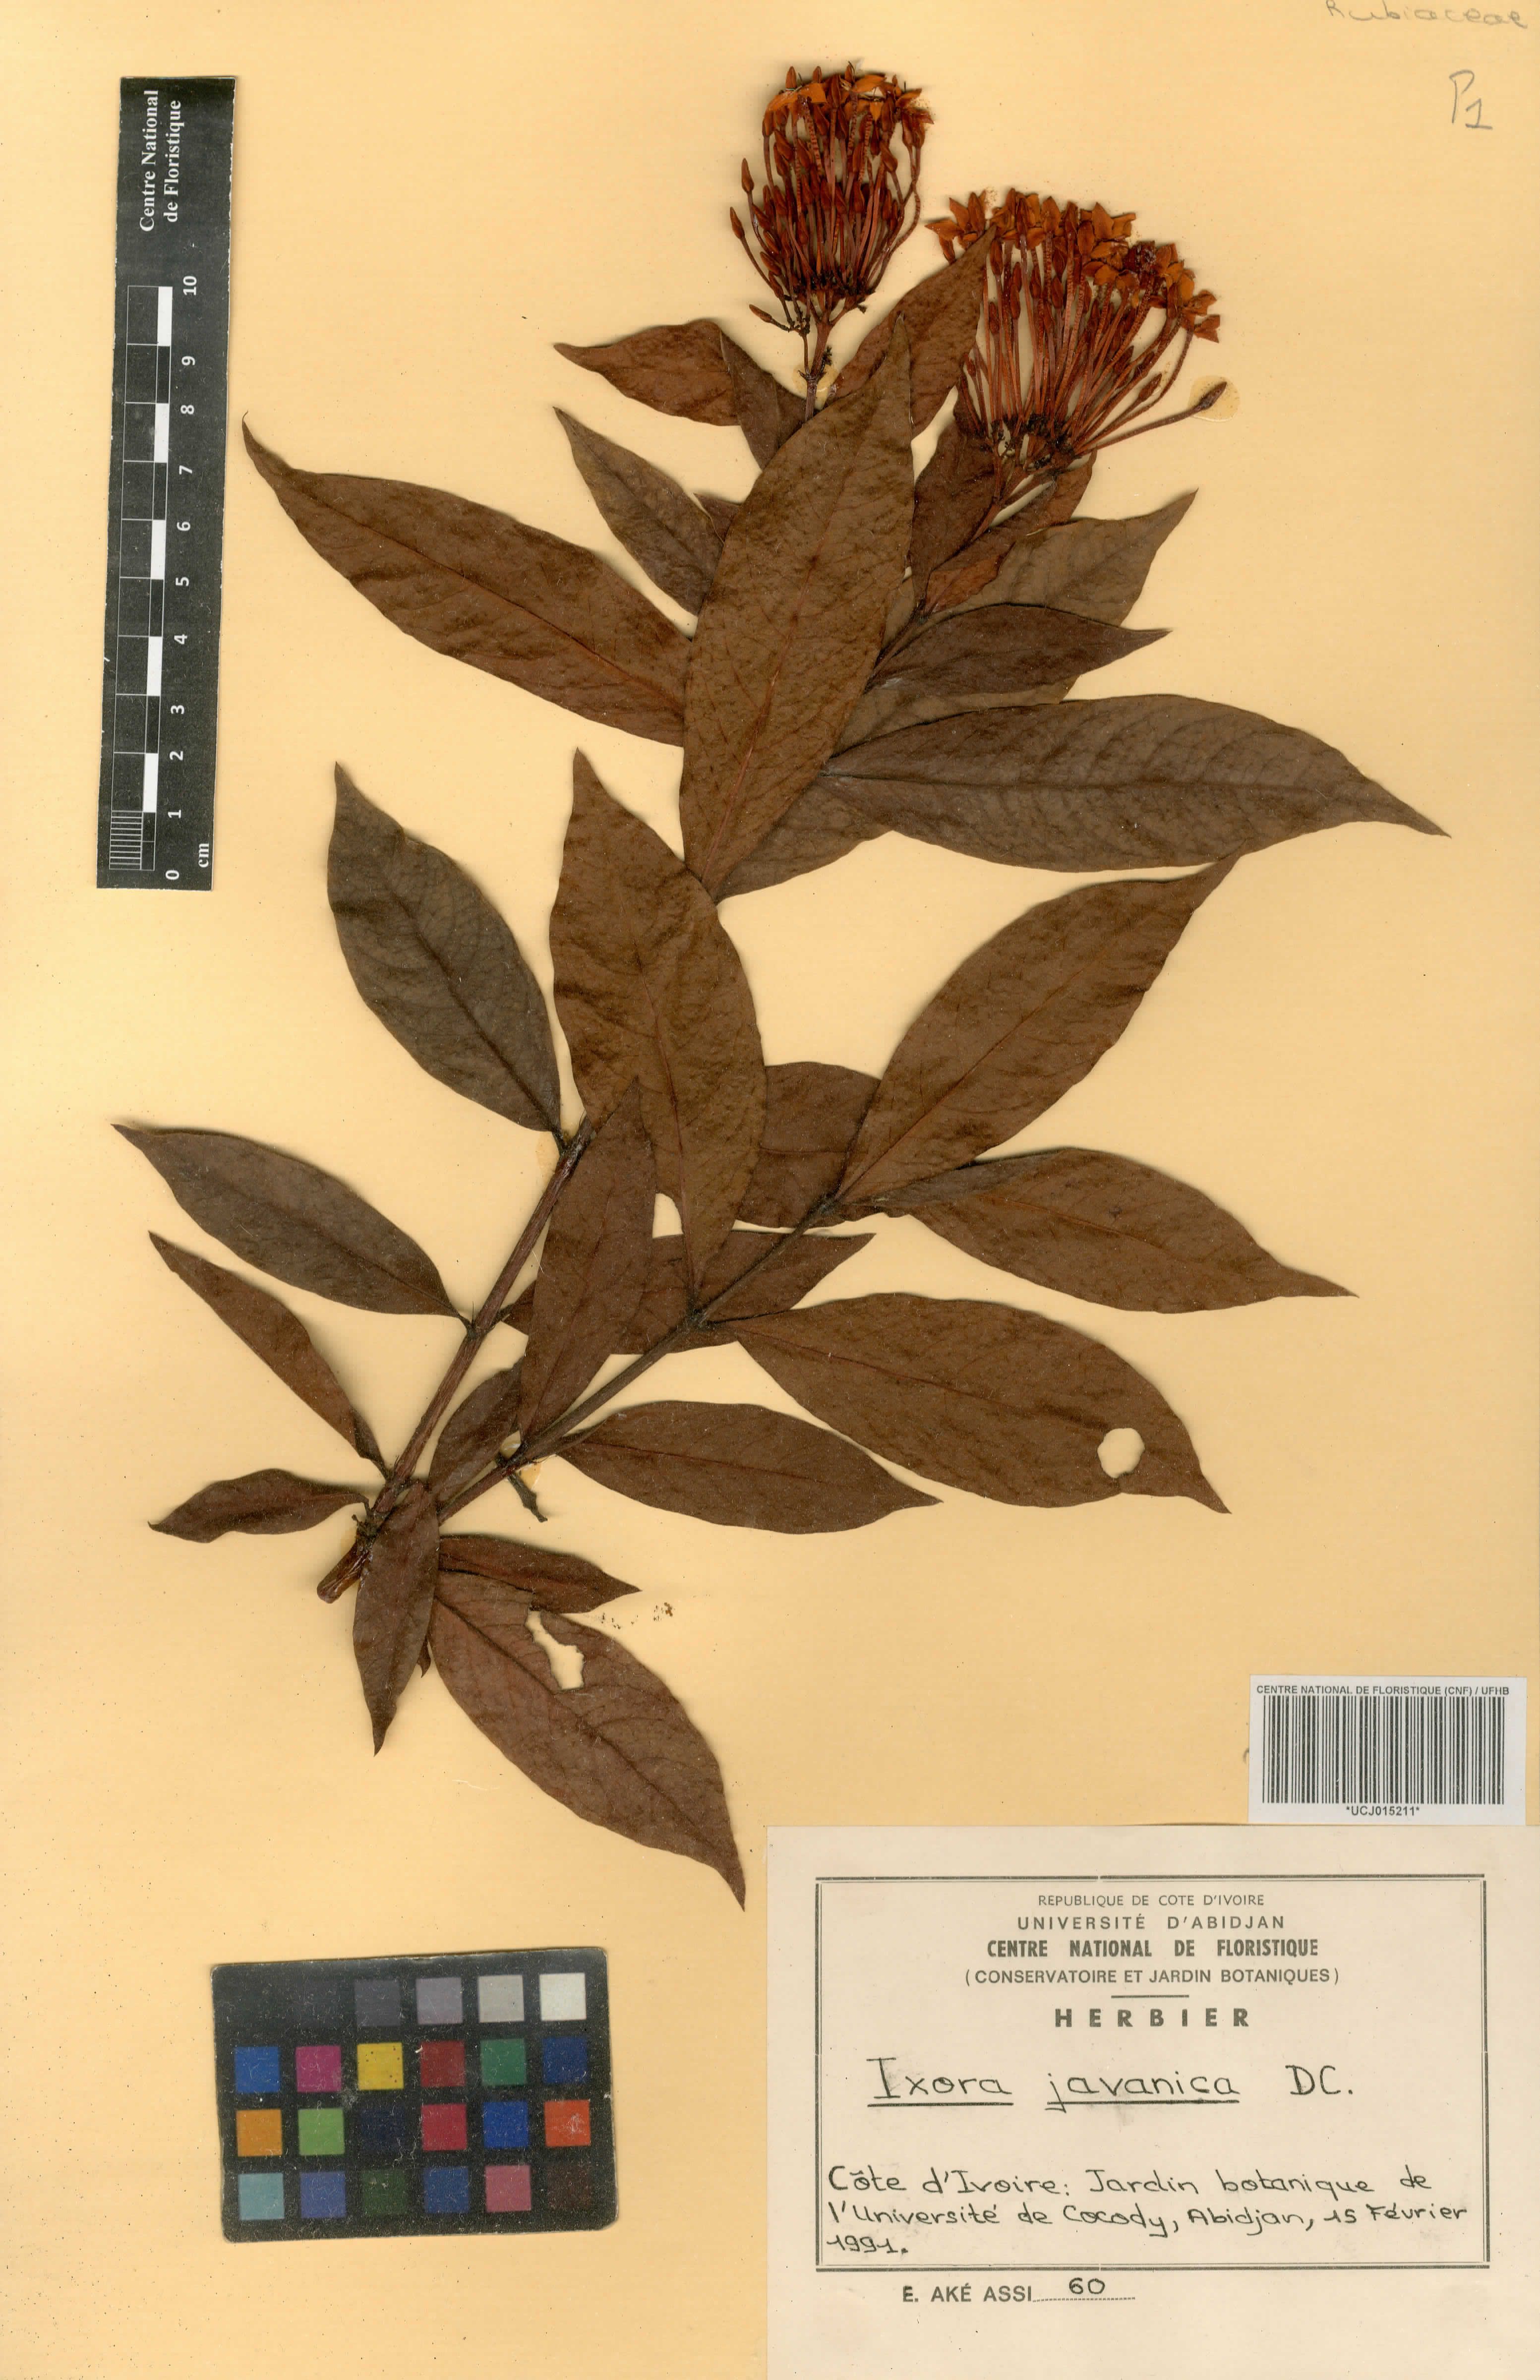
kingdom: Plantae
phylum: Tracheophyta
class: Magnoliopsida
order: Gentianales
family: Rubiaceae
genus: Ixora
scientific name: Ixora javanica
